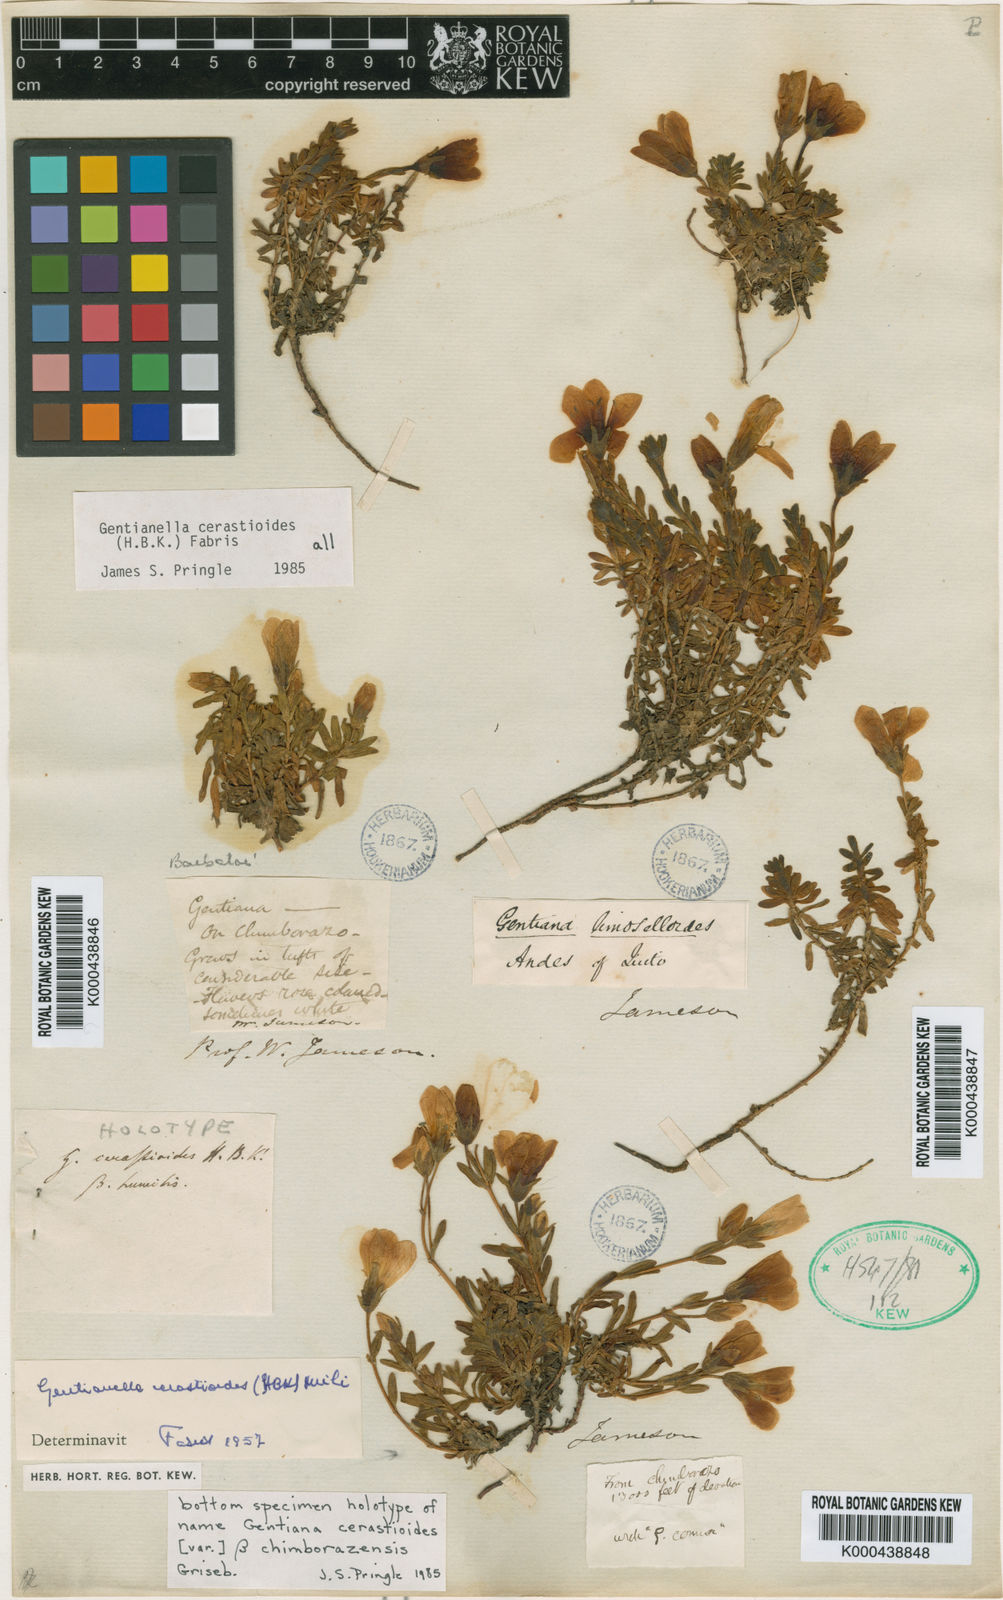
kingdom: Plantae
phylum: Tracheophyta
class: Magnoliopsida
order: Gentianales
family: Gentianaceae
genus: Gentianella
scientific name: Gentianella cerastioides
